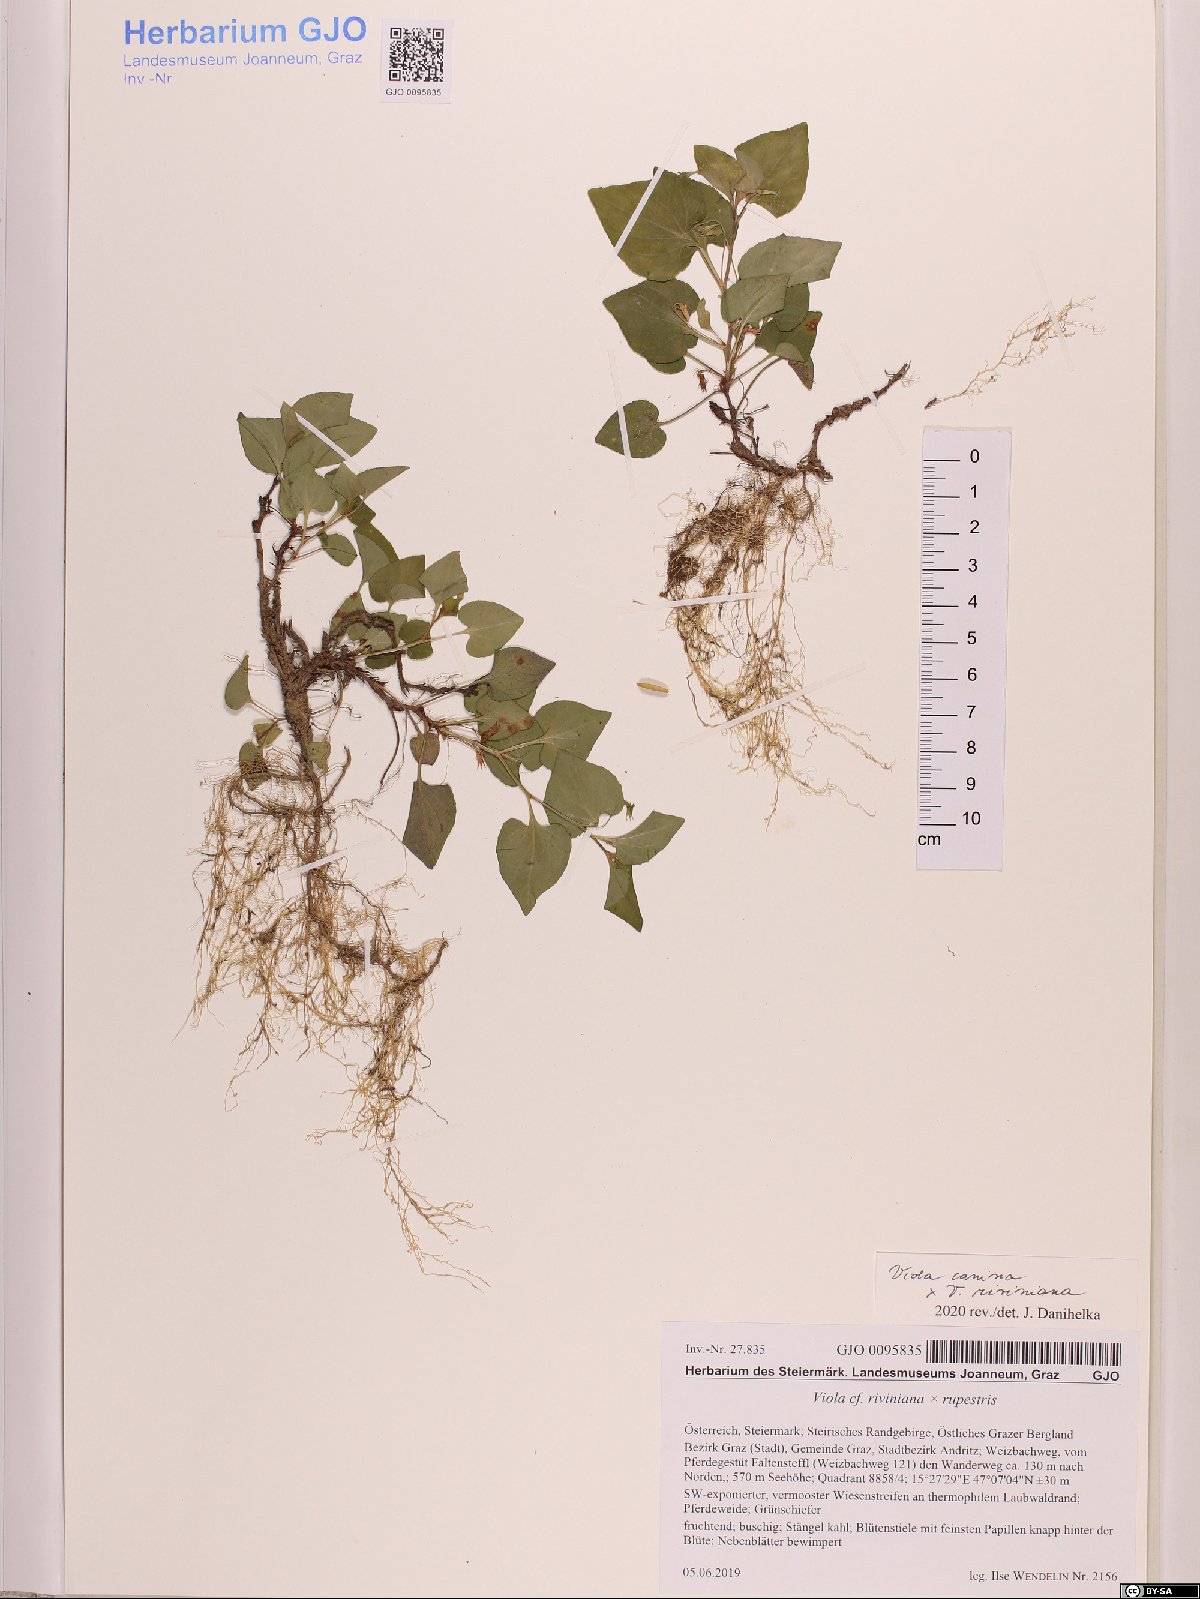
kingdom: Plantae
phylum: Tracheophyta
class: Magnoliopsida
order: Malpighiales
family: Violaceae
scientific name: Violaceae
